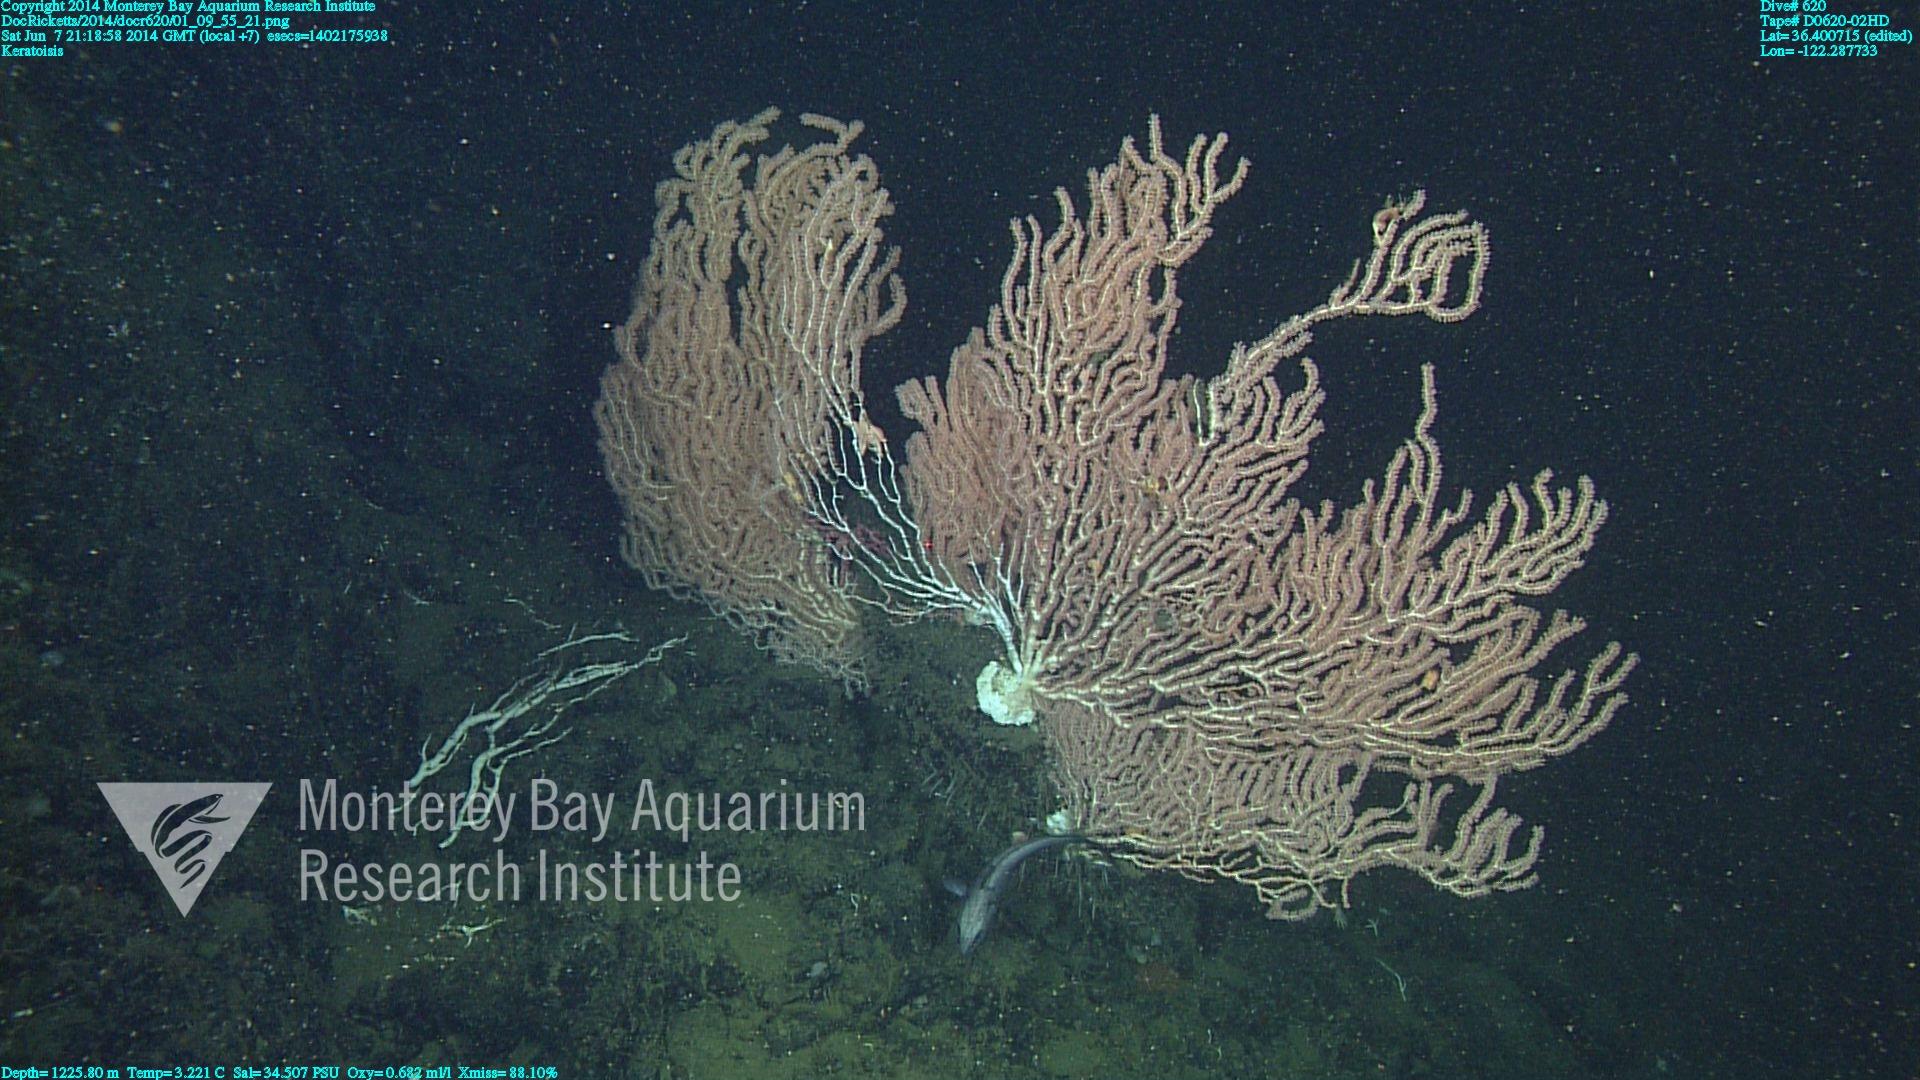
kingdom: Animalia
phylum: Cnidaria
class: Anthozoa
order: Scleralcyonacea
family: Keratoisididae
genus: Keratoisis
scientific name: Keratoisis
